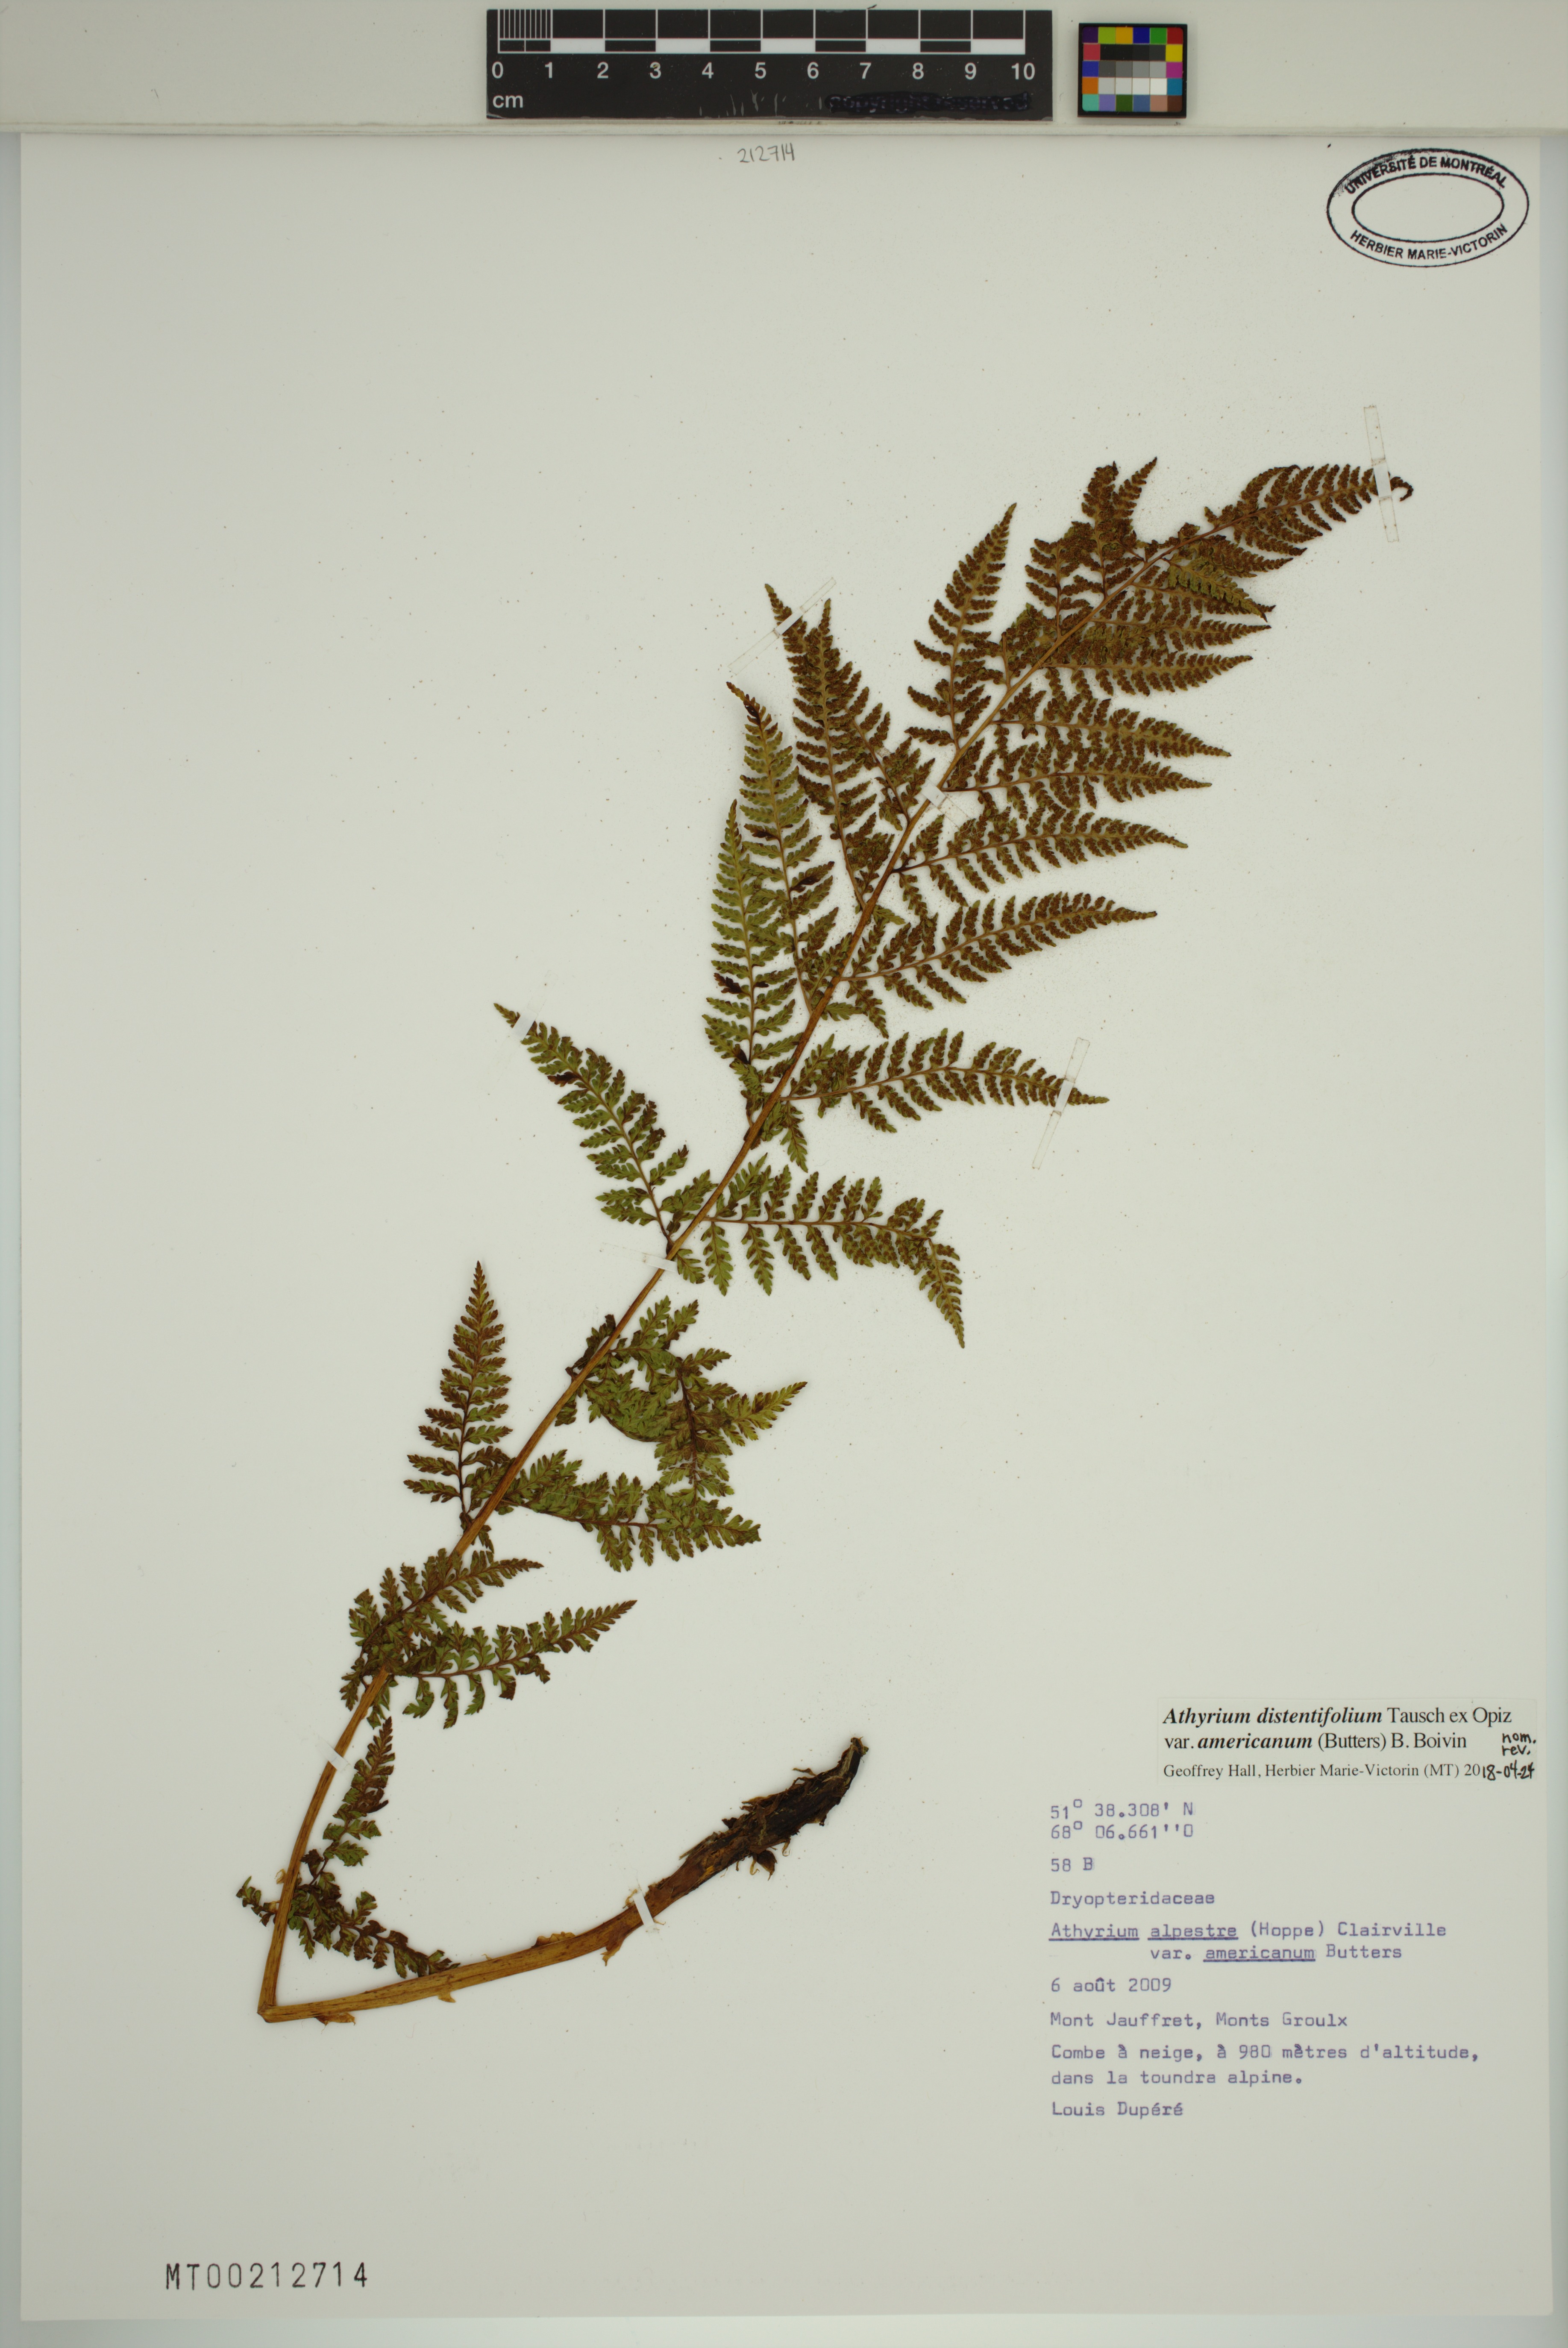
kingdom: Plantae
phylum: Tracheophyta
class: Polypodiopsida
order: Polypodiales
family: Athyriaceae
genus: Athyrium
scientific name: Athyrium americanum
